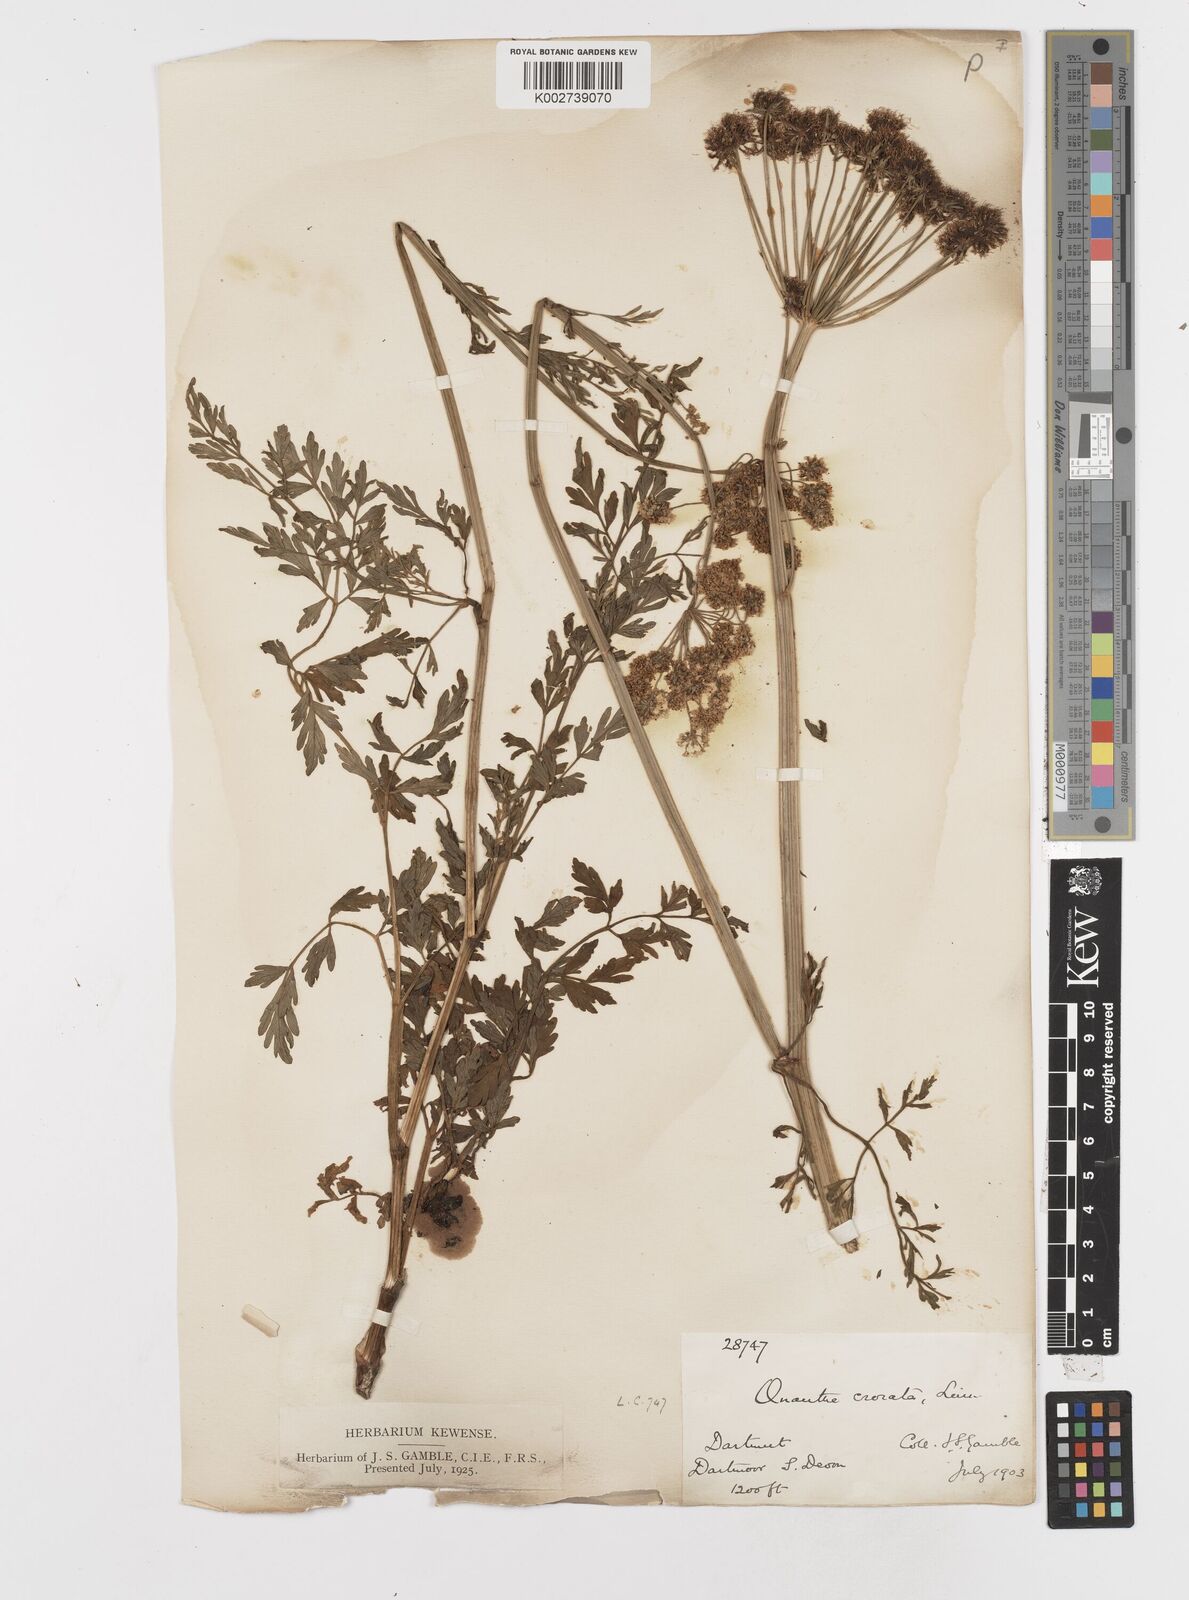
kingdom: Plantae
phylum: Tracheophyta
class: Magnoliopsida
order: Apiales
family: Apiaceae
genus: Oenanthe
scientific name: Oenanthe crocata
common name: Hemlock water-dropwort
